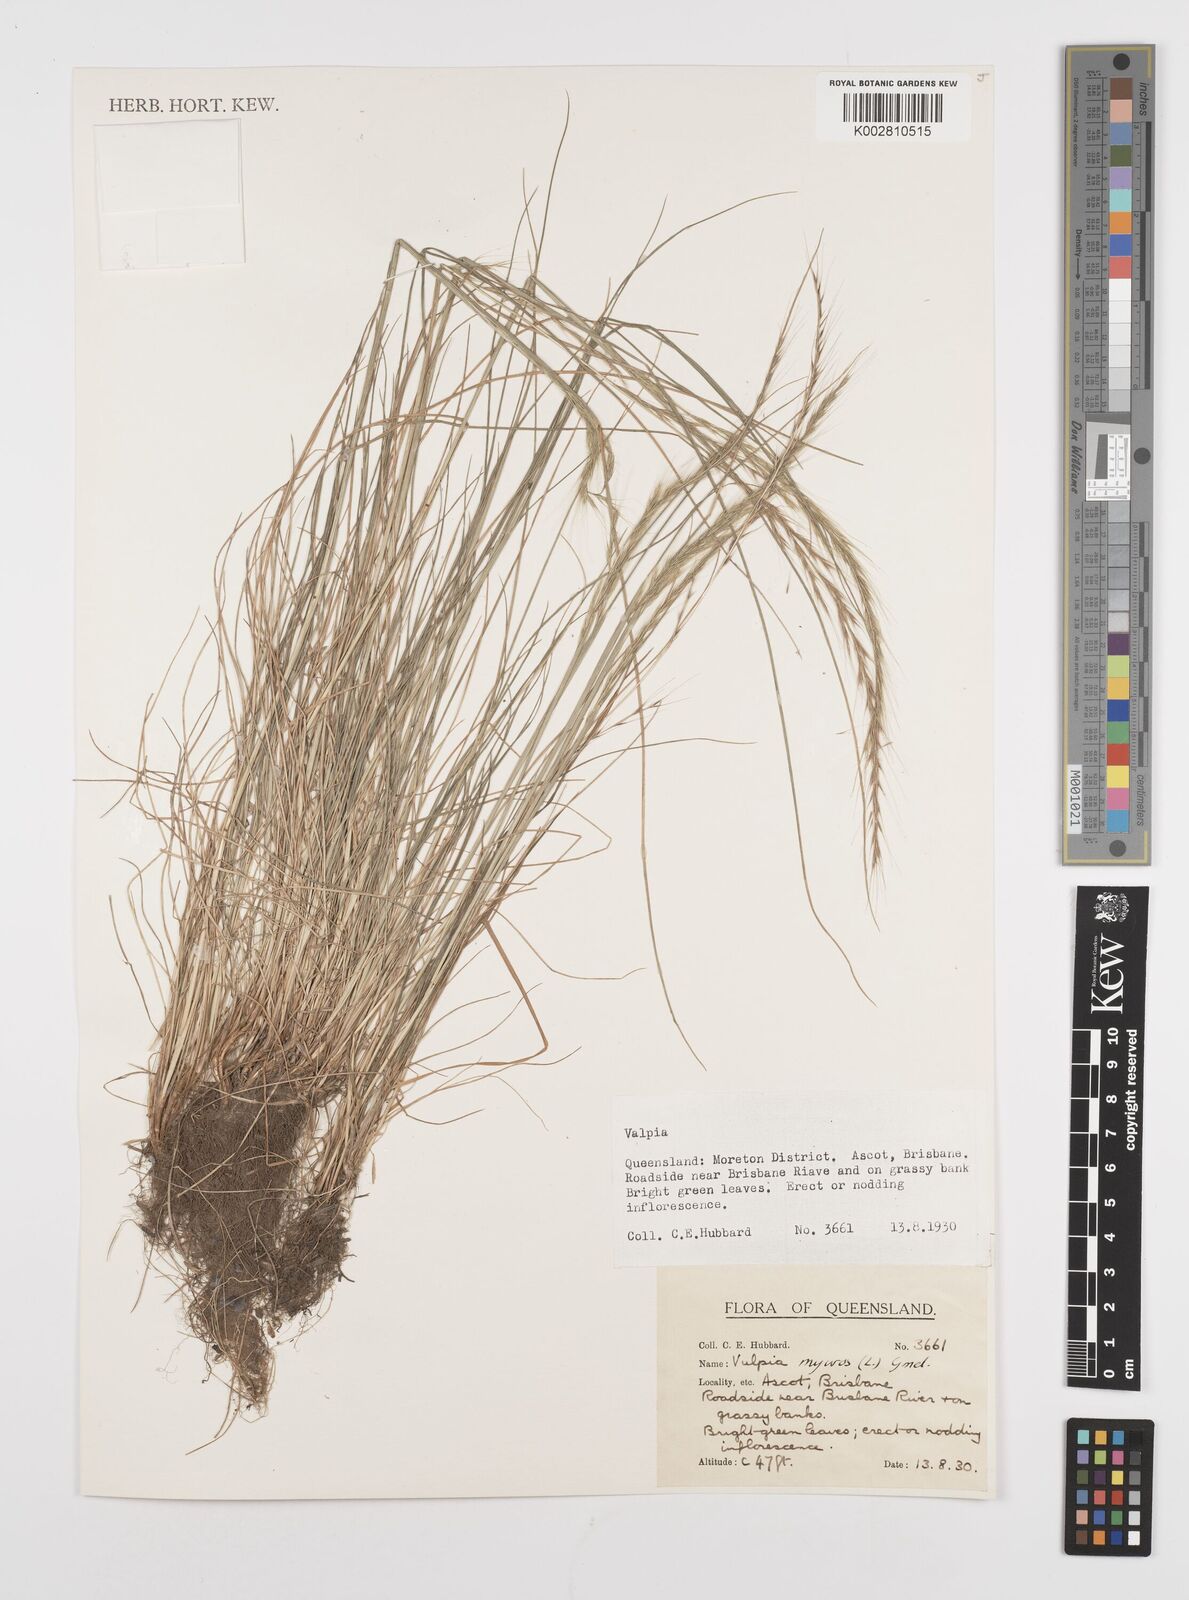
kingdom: Plantae
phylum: Tracheophyta
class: Liliopsida
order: Poales
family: Poaceae
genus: Festuca
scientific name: Festuca myuros
